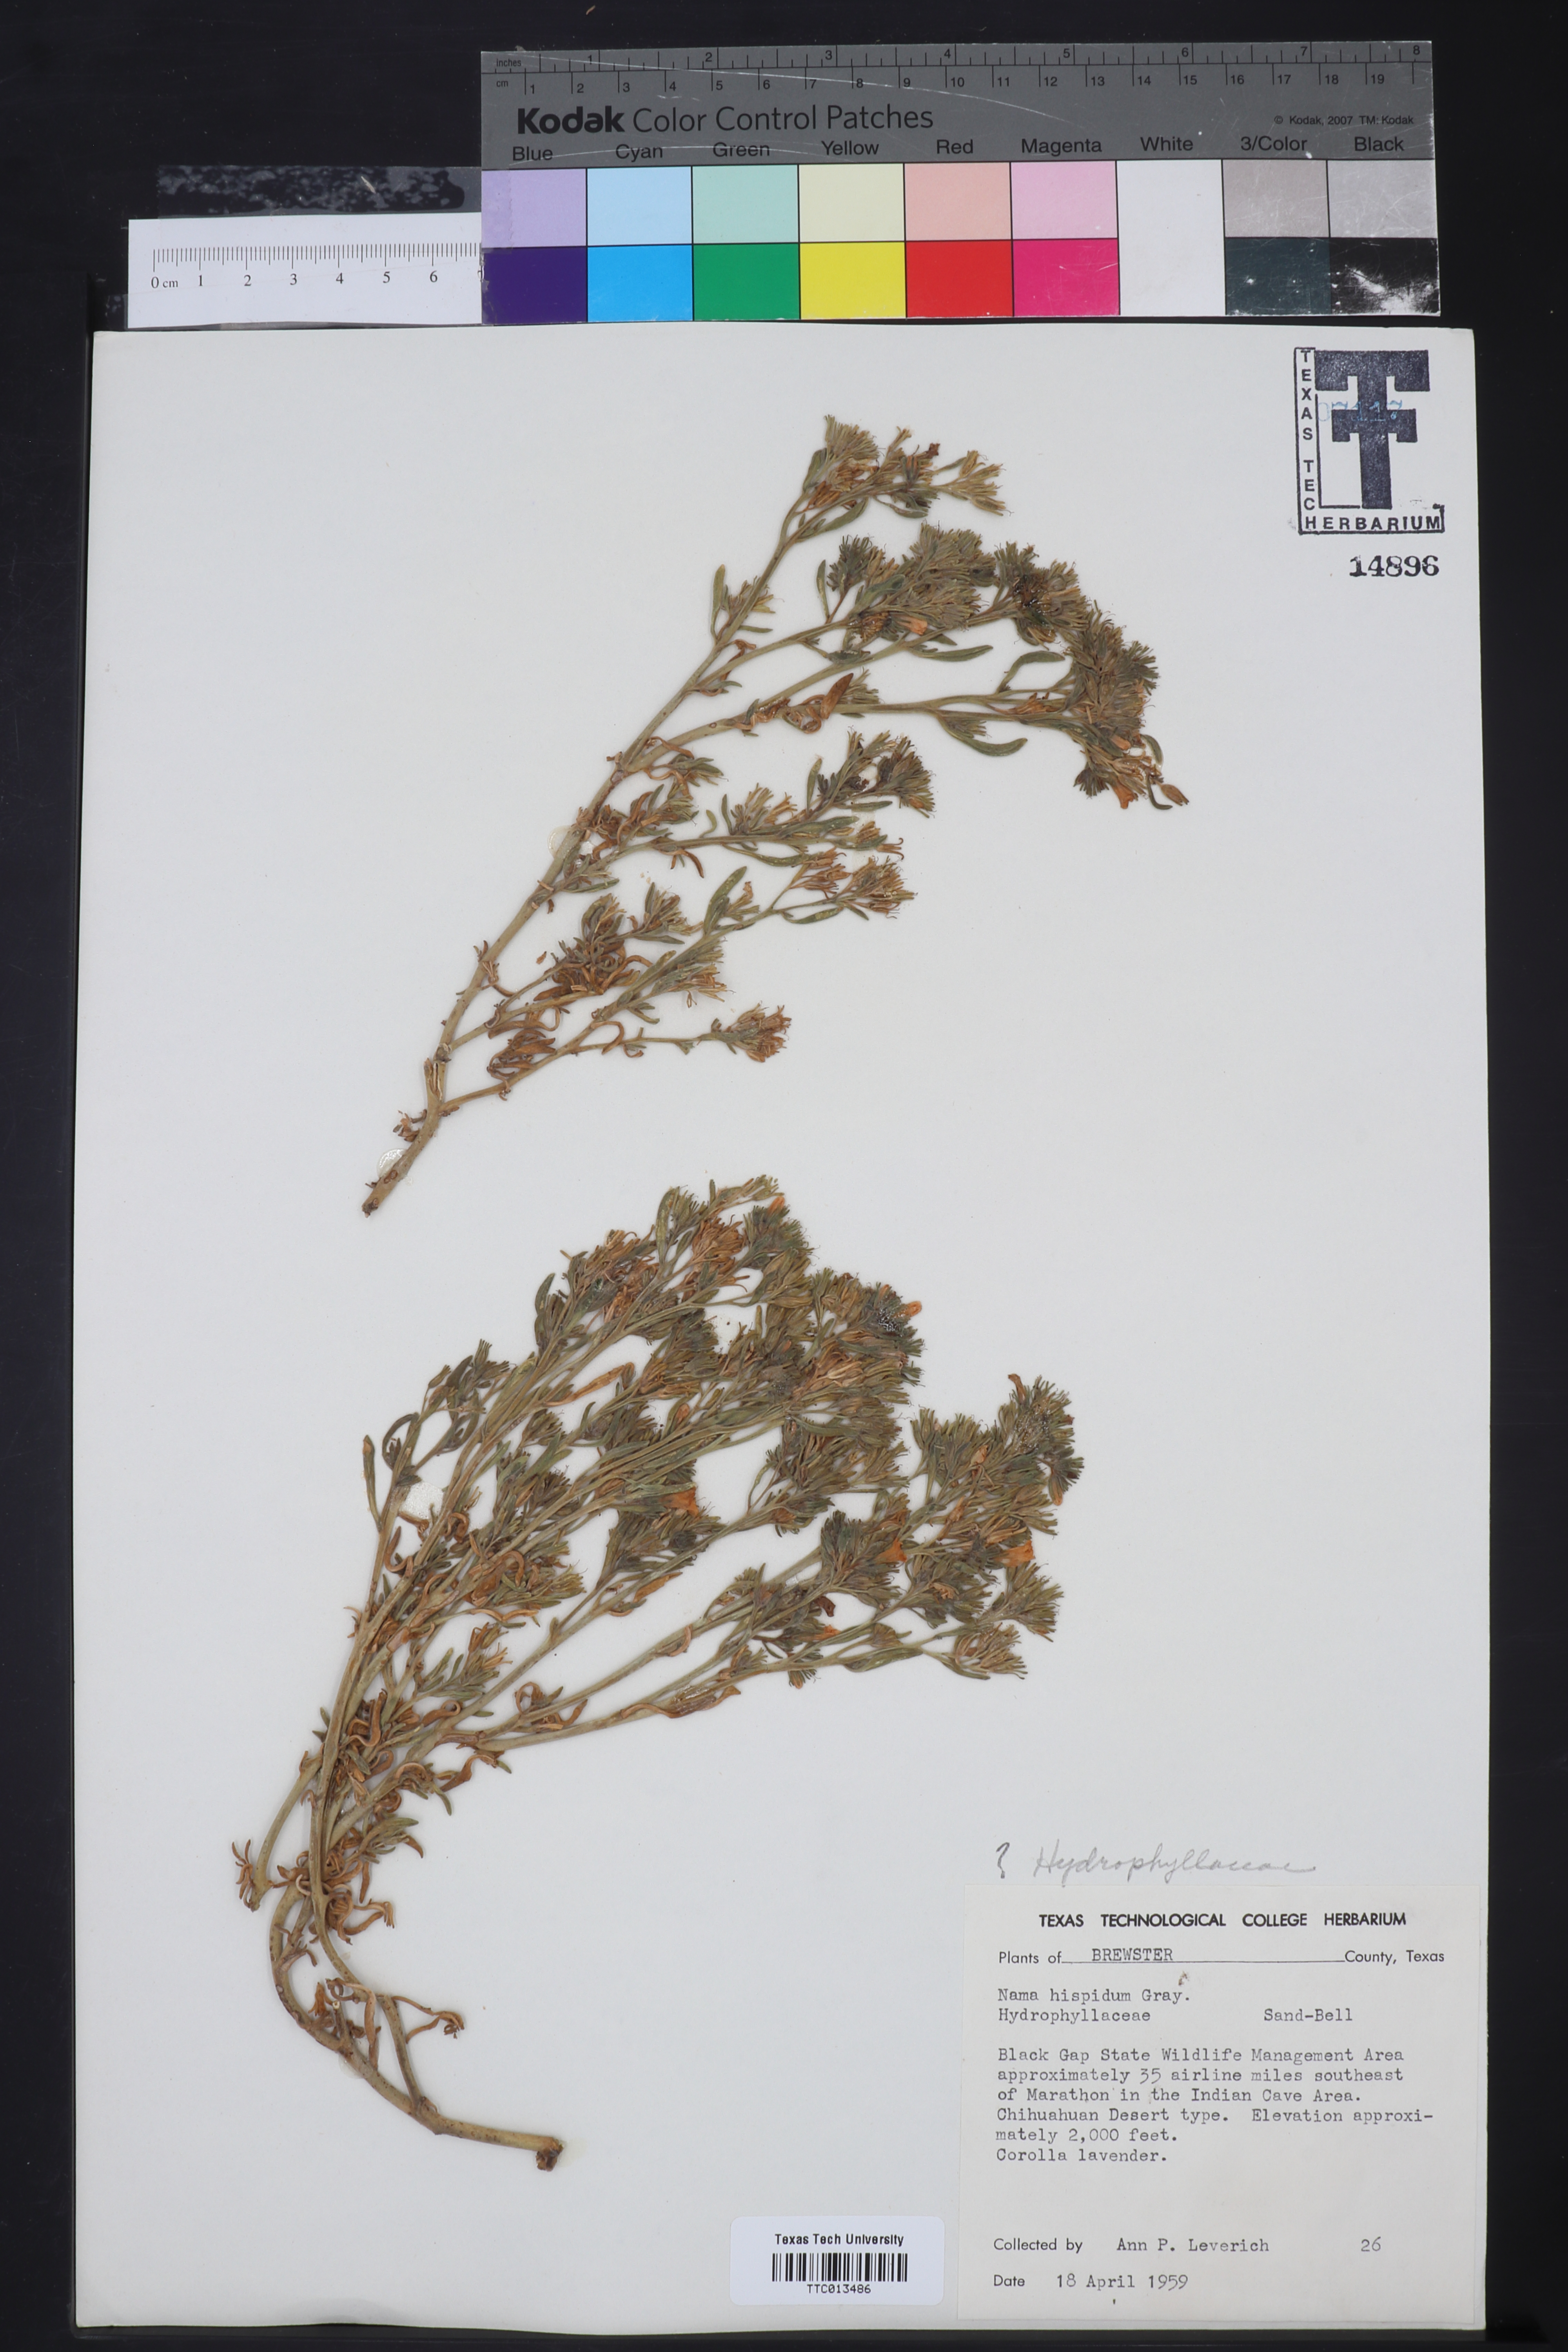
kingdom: Plantae
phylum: Tracheophyta
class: Magnoliopsida
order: Boraginales
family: Namaceae
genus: Nama
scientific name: Nama hispida
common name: Bristly nama
